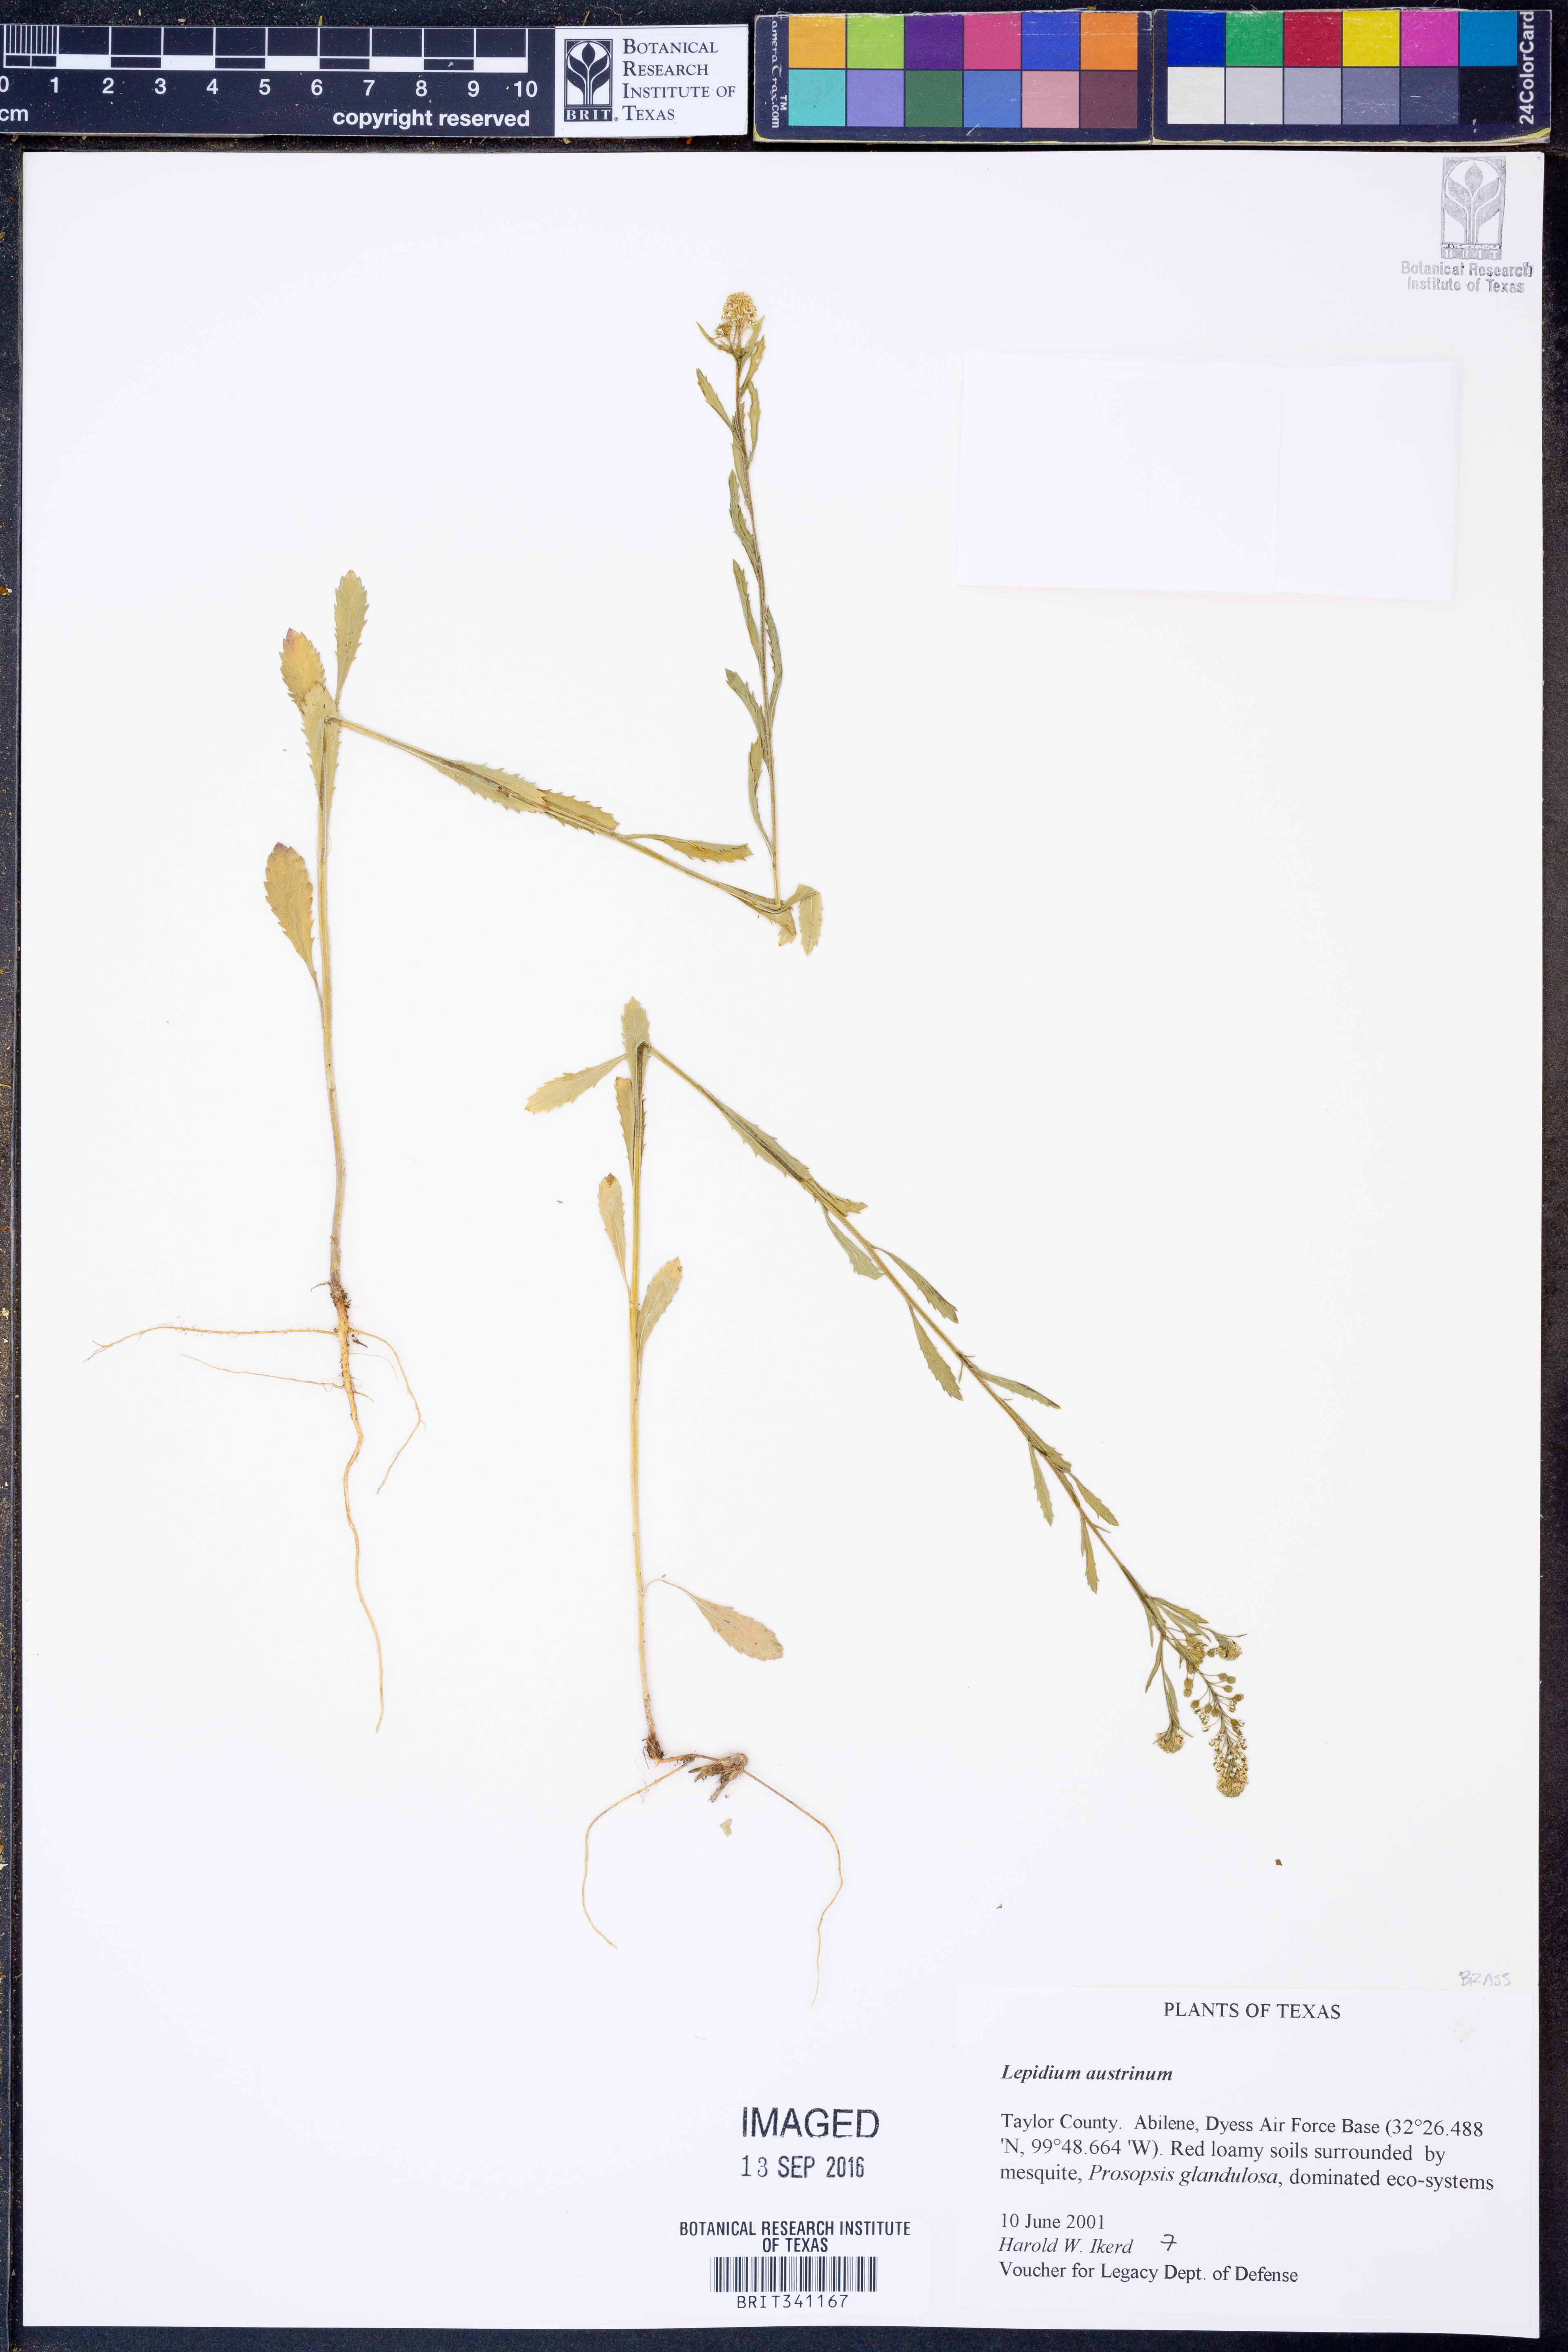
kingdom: Plantae
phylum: Tracheophyta
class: Magnoliopsida
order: Brassicales
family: Brassicaceae
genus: Lepidium
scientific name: Lepidium austrinum
